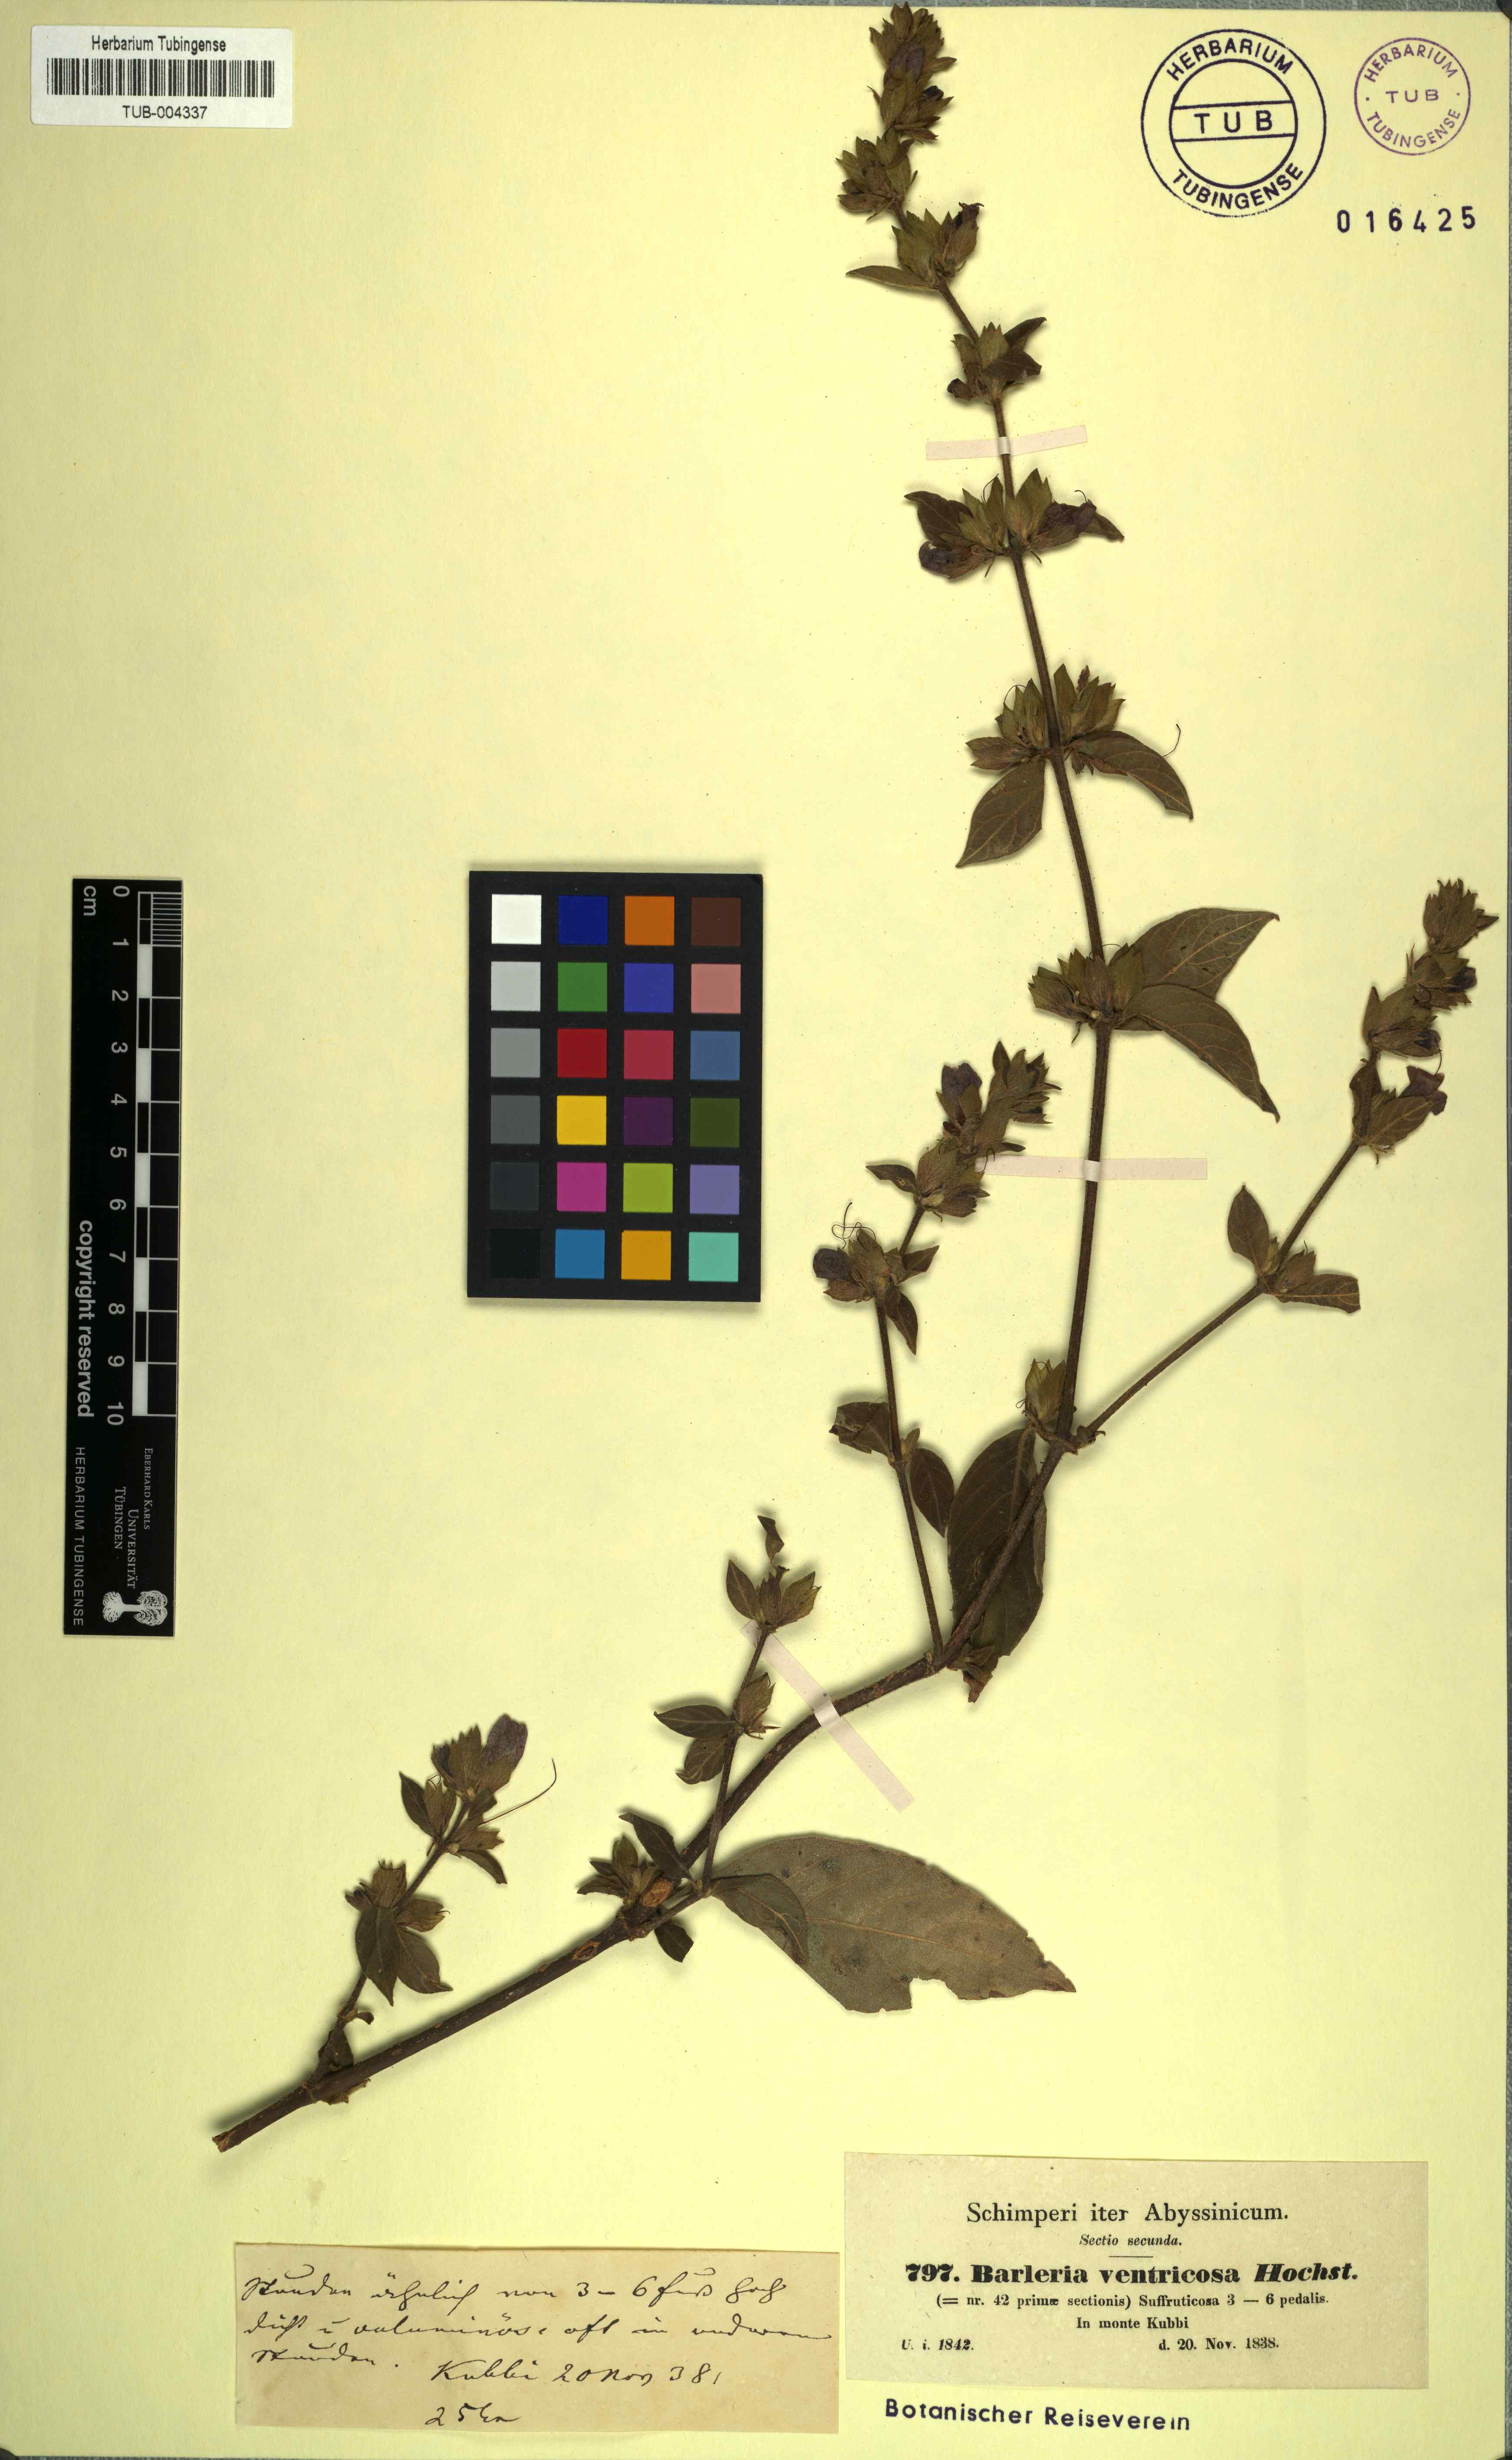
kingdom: Plantae
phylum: Tracheophyta
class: Magnoliopsida
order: Lamiales
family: Acanthaceae
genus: Barleria
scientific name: Barleria ventricosa
